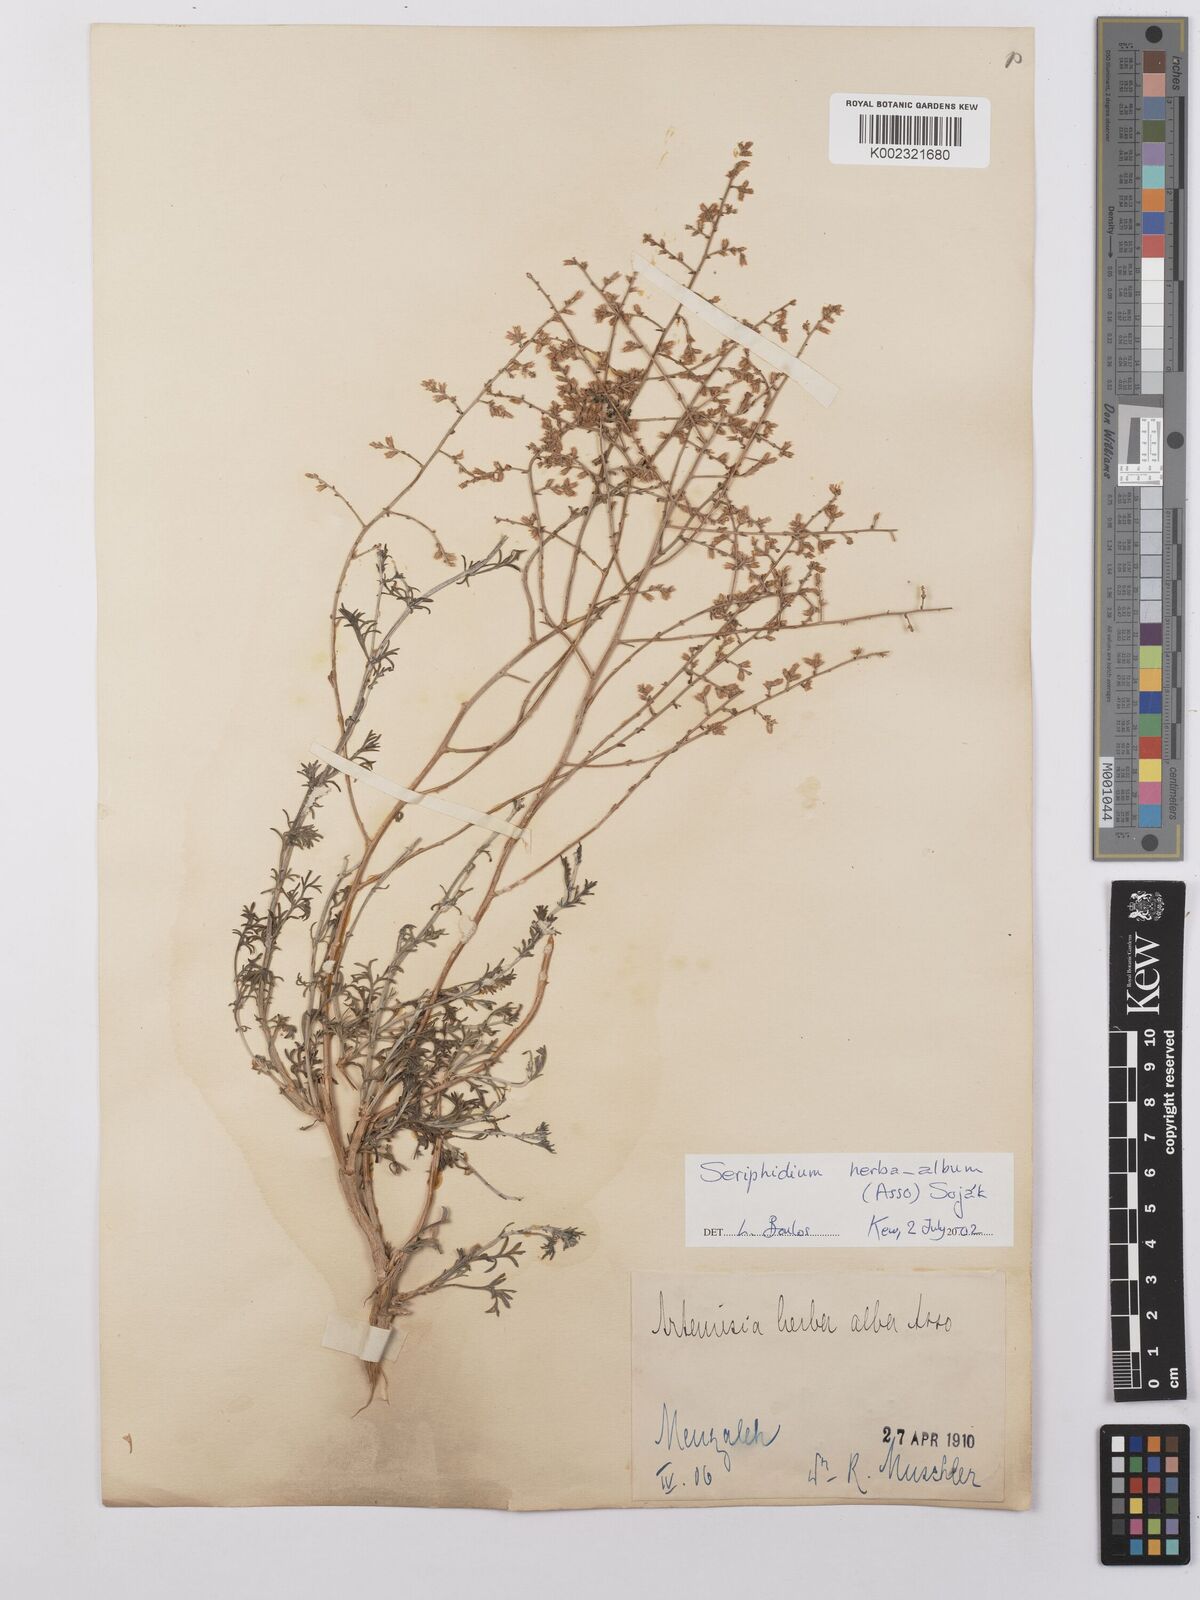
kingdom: Plantae
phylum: Tracheophyta
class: Magnoliopsida
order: Asterales
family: Asteraceae
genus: Artemisia
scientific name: Artemisia herba-alba
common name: White wormwood
